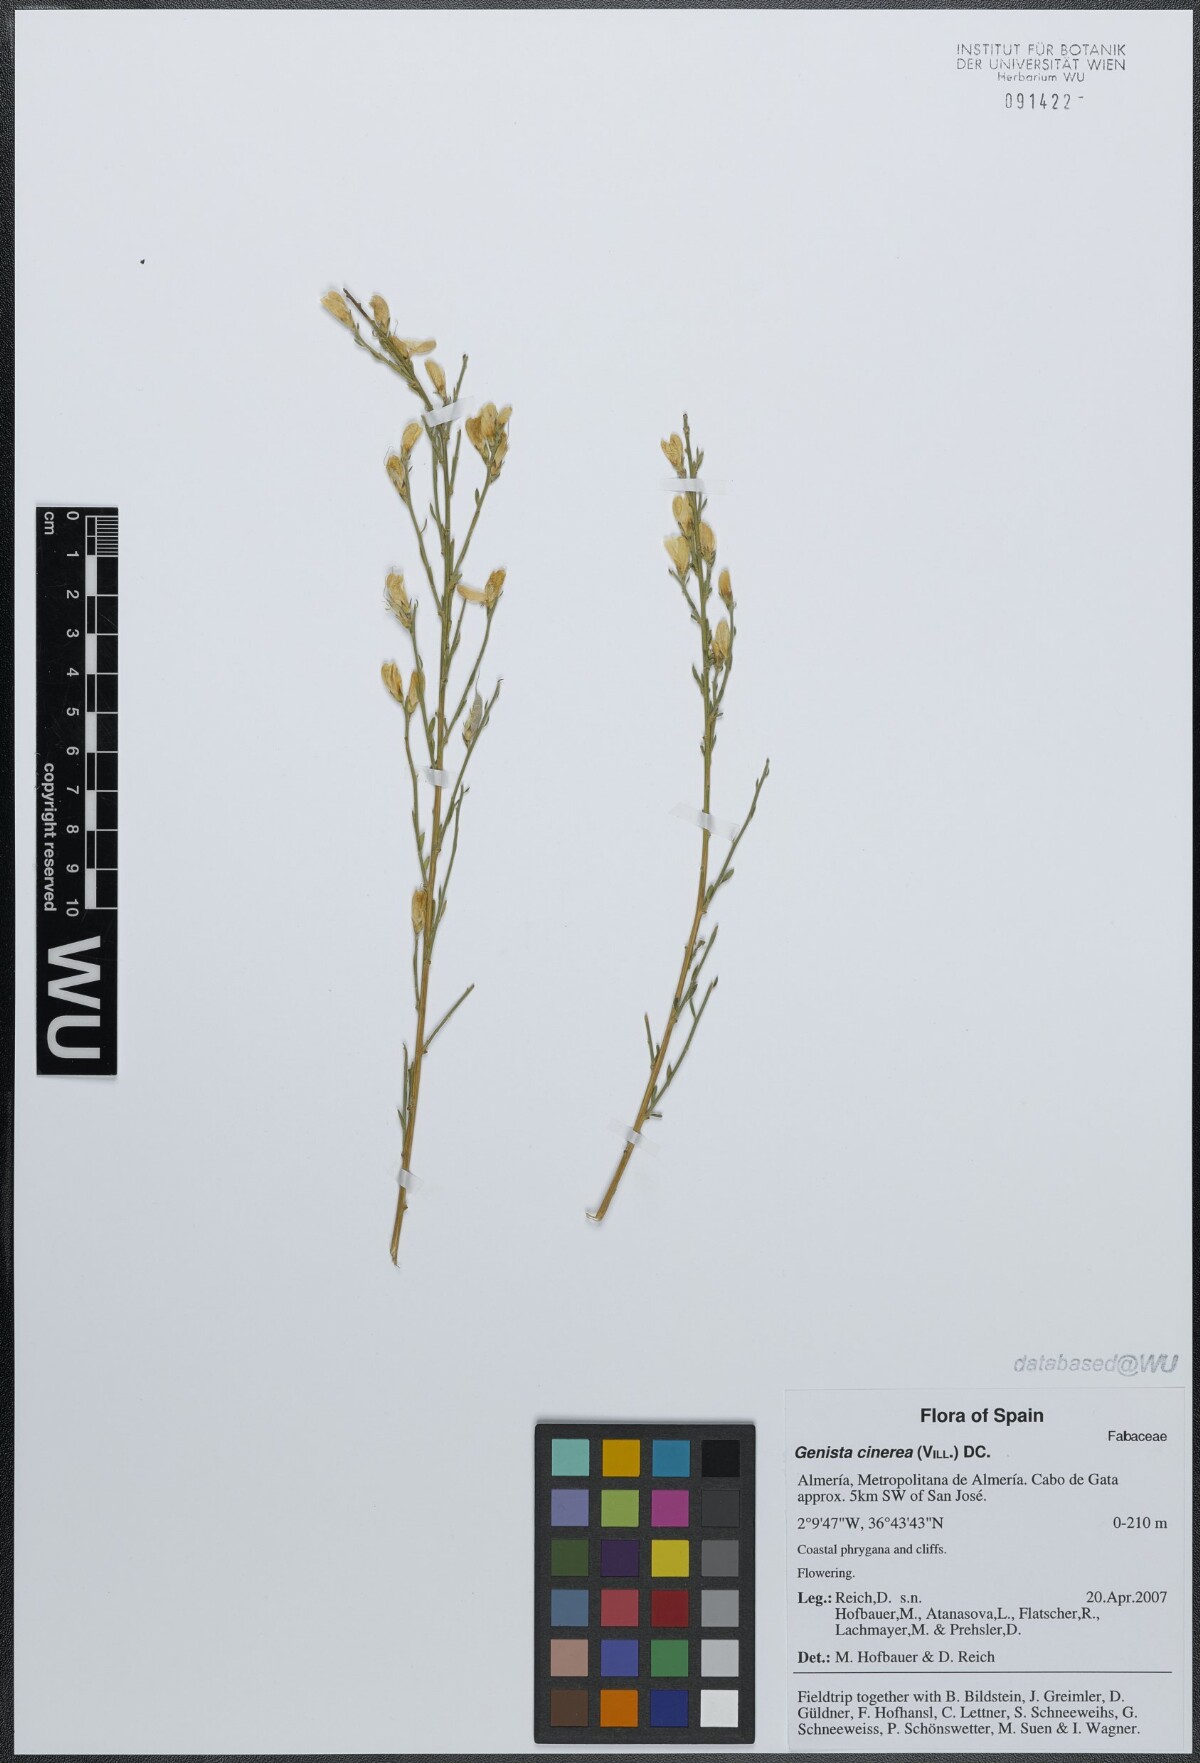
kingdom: Plantae
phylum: Tracheophyta
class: Magnoliopsida
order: Fabales
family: Fabaceae
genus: Genista
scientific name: Genista cinerea
